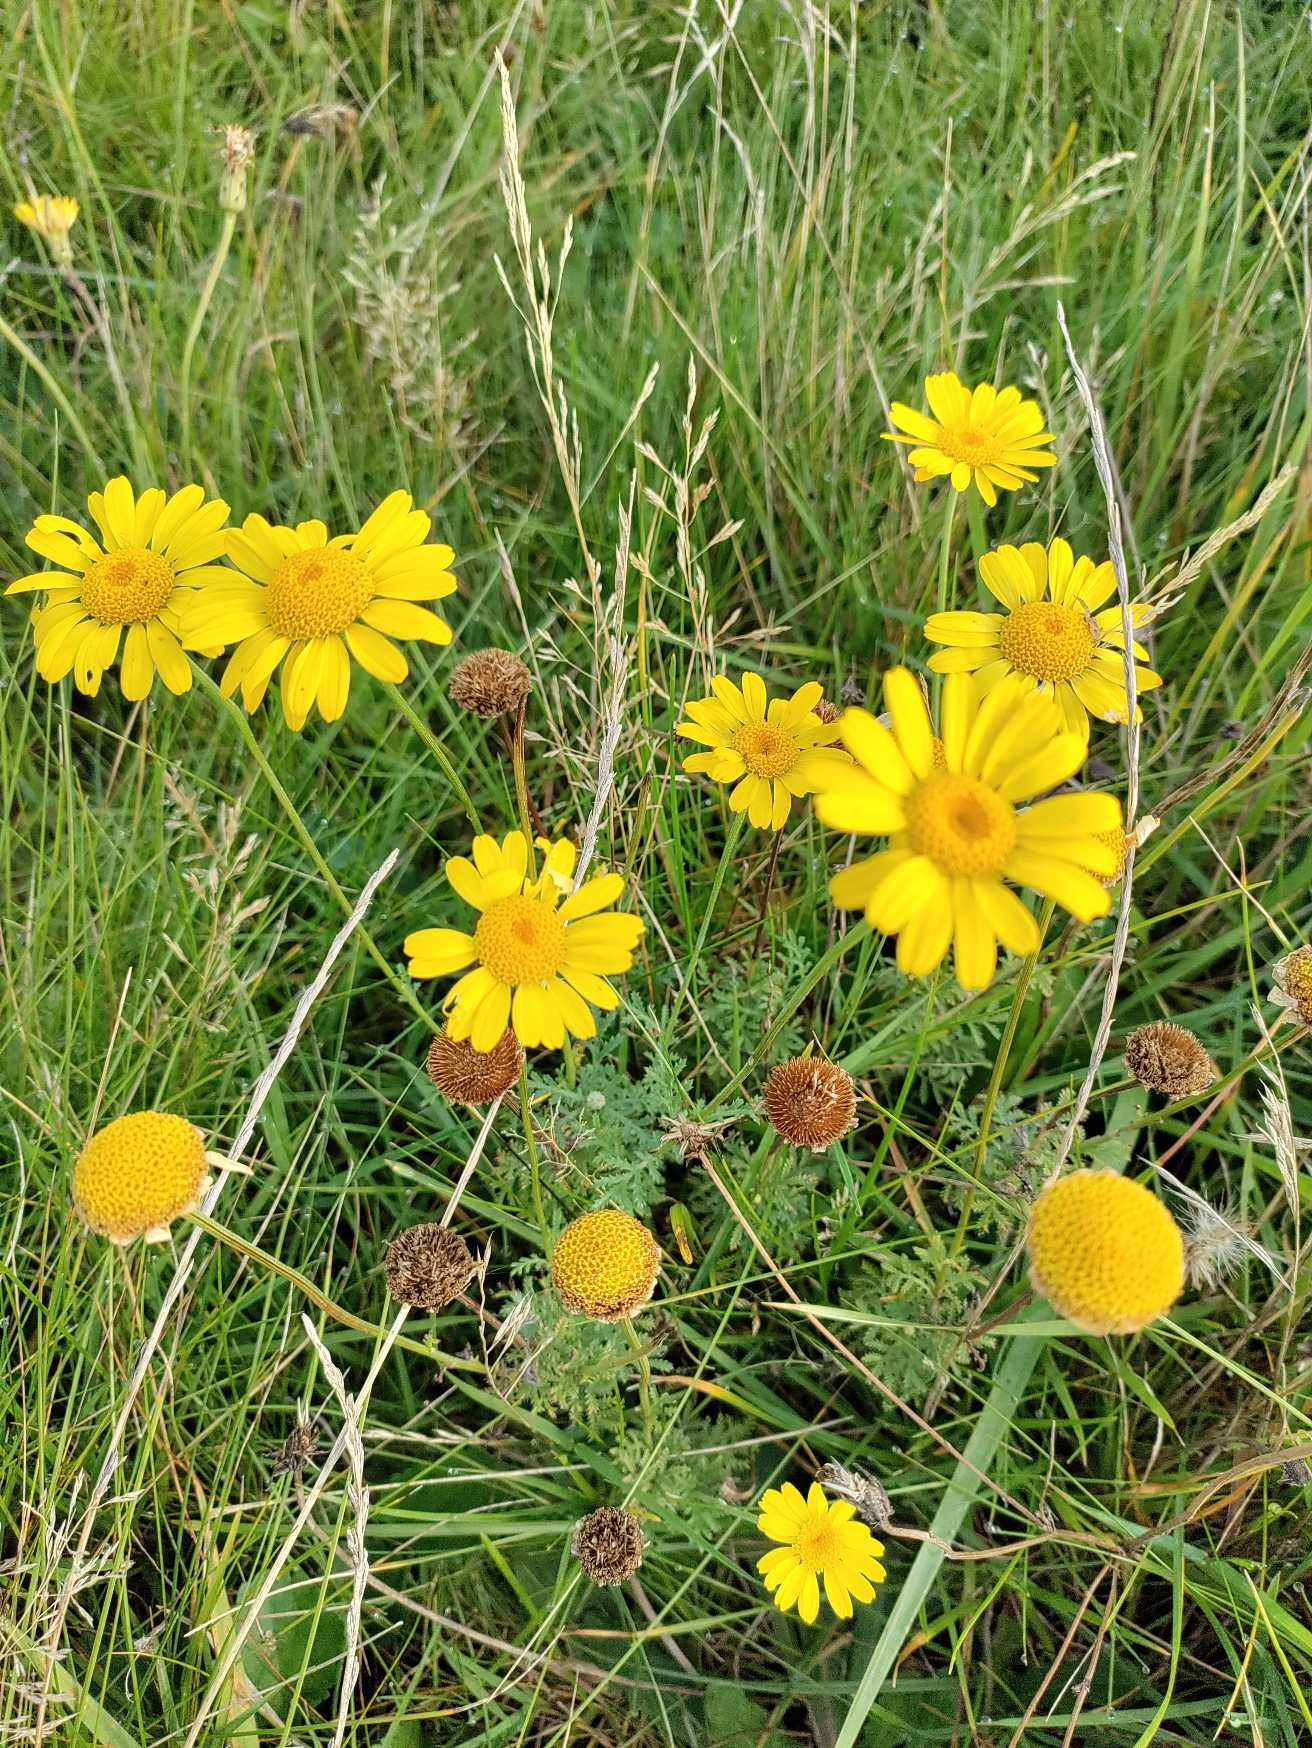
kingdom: Plantae
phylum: Tracheophyta
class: Magnoliopsida
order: Asterales
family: Asteraceae
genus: Cota
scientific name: Cota tinctoria
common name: Farve-gåseurt
